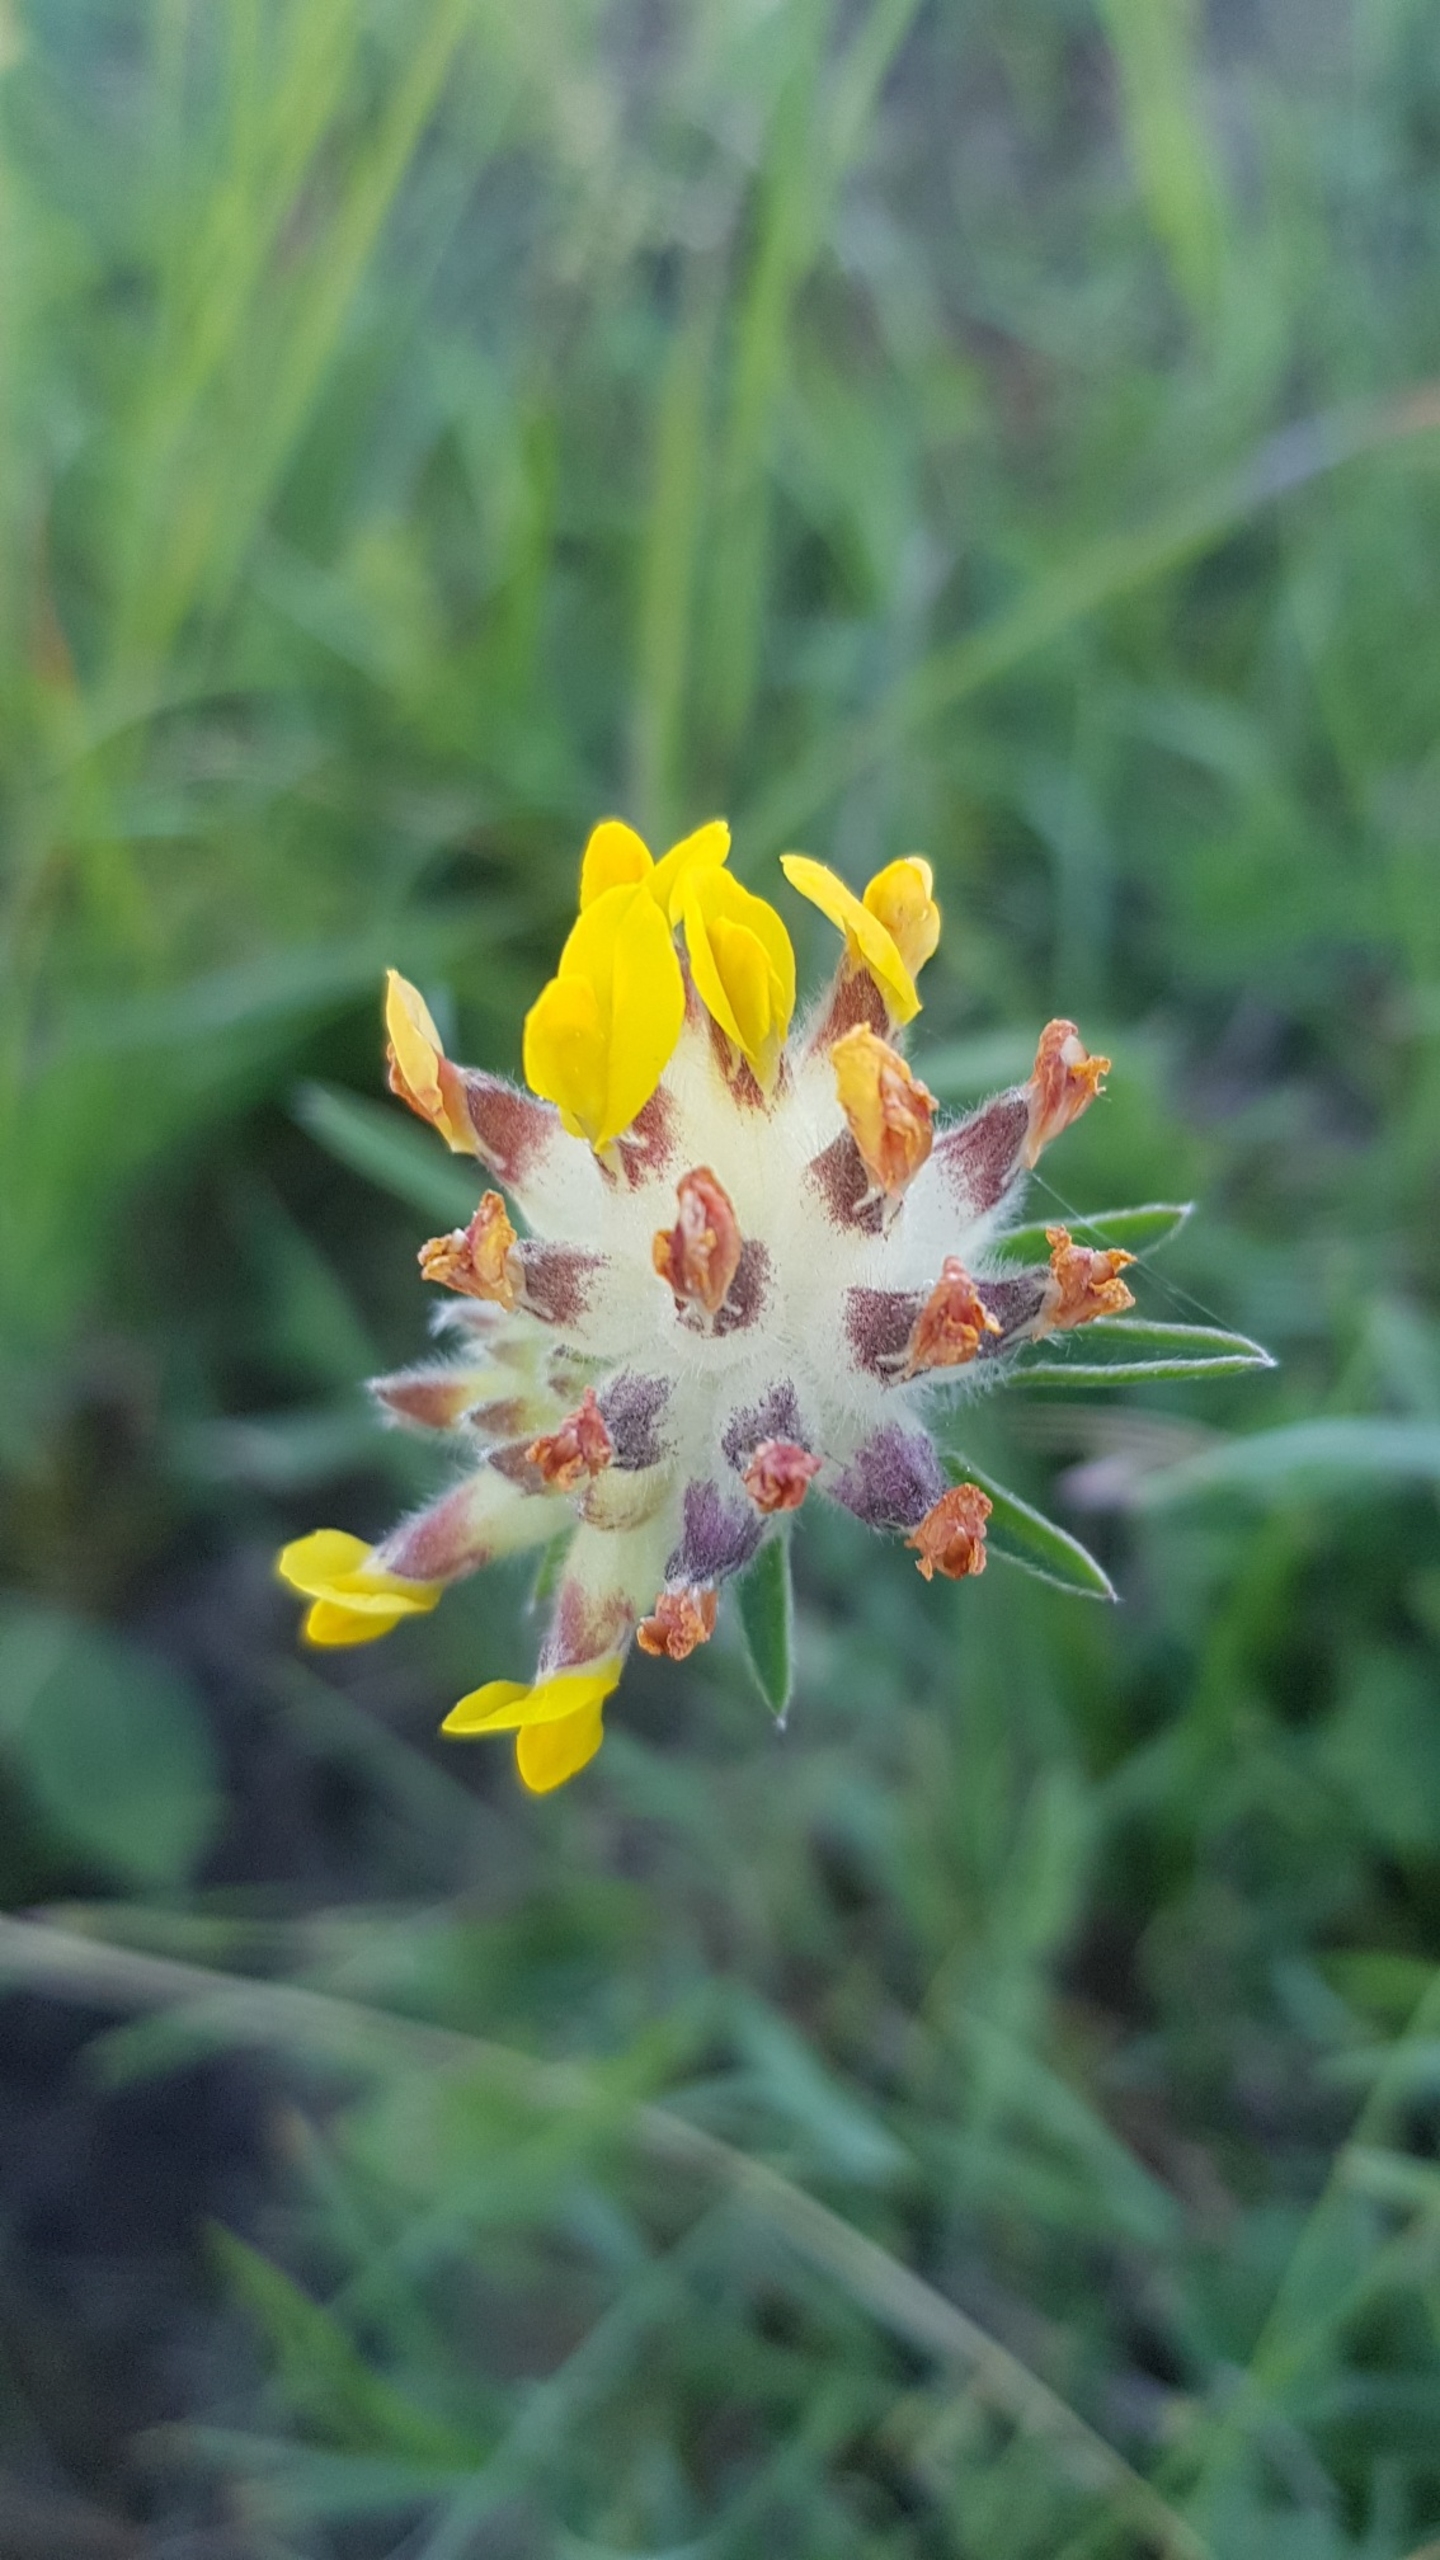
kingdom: Plantae
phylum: Tracheophyta
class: Magnoliopsida
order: Fabales
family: Fabaceae
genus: Anthyllis
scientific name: Anthyllis vulneraria
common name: Rundbælg
